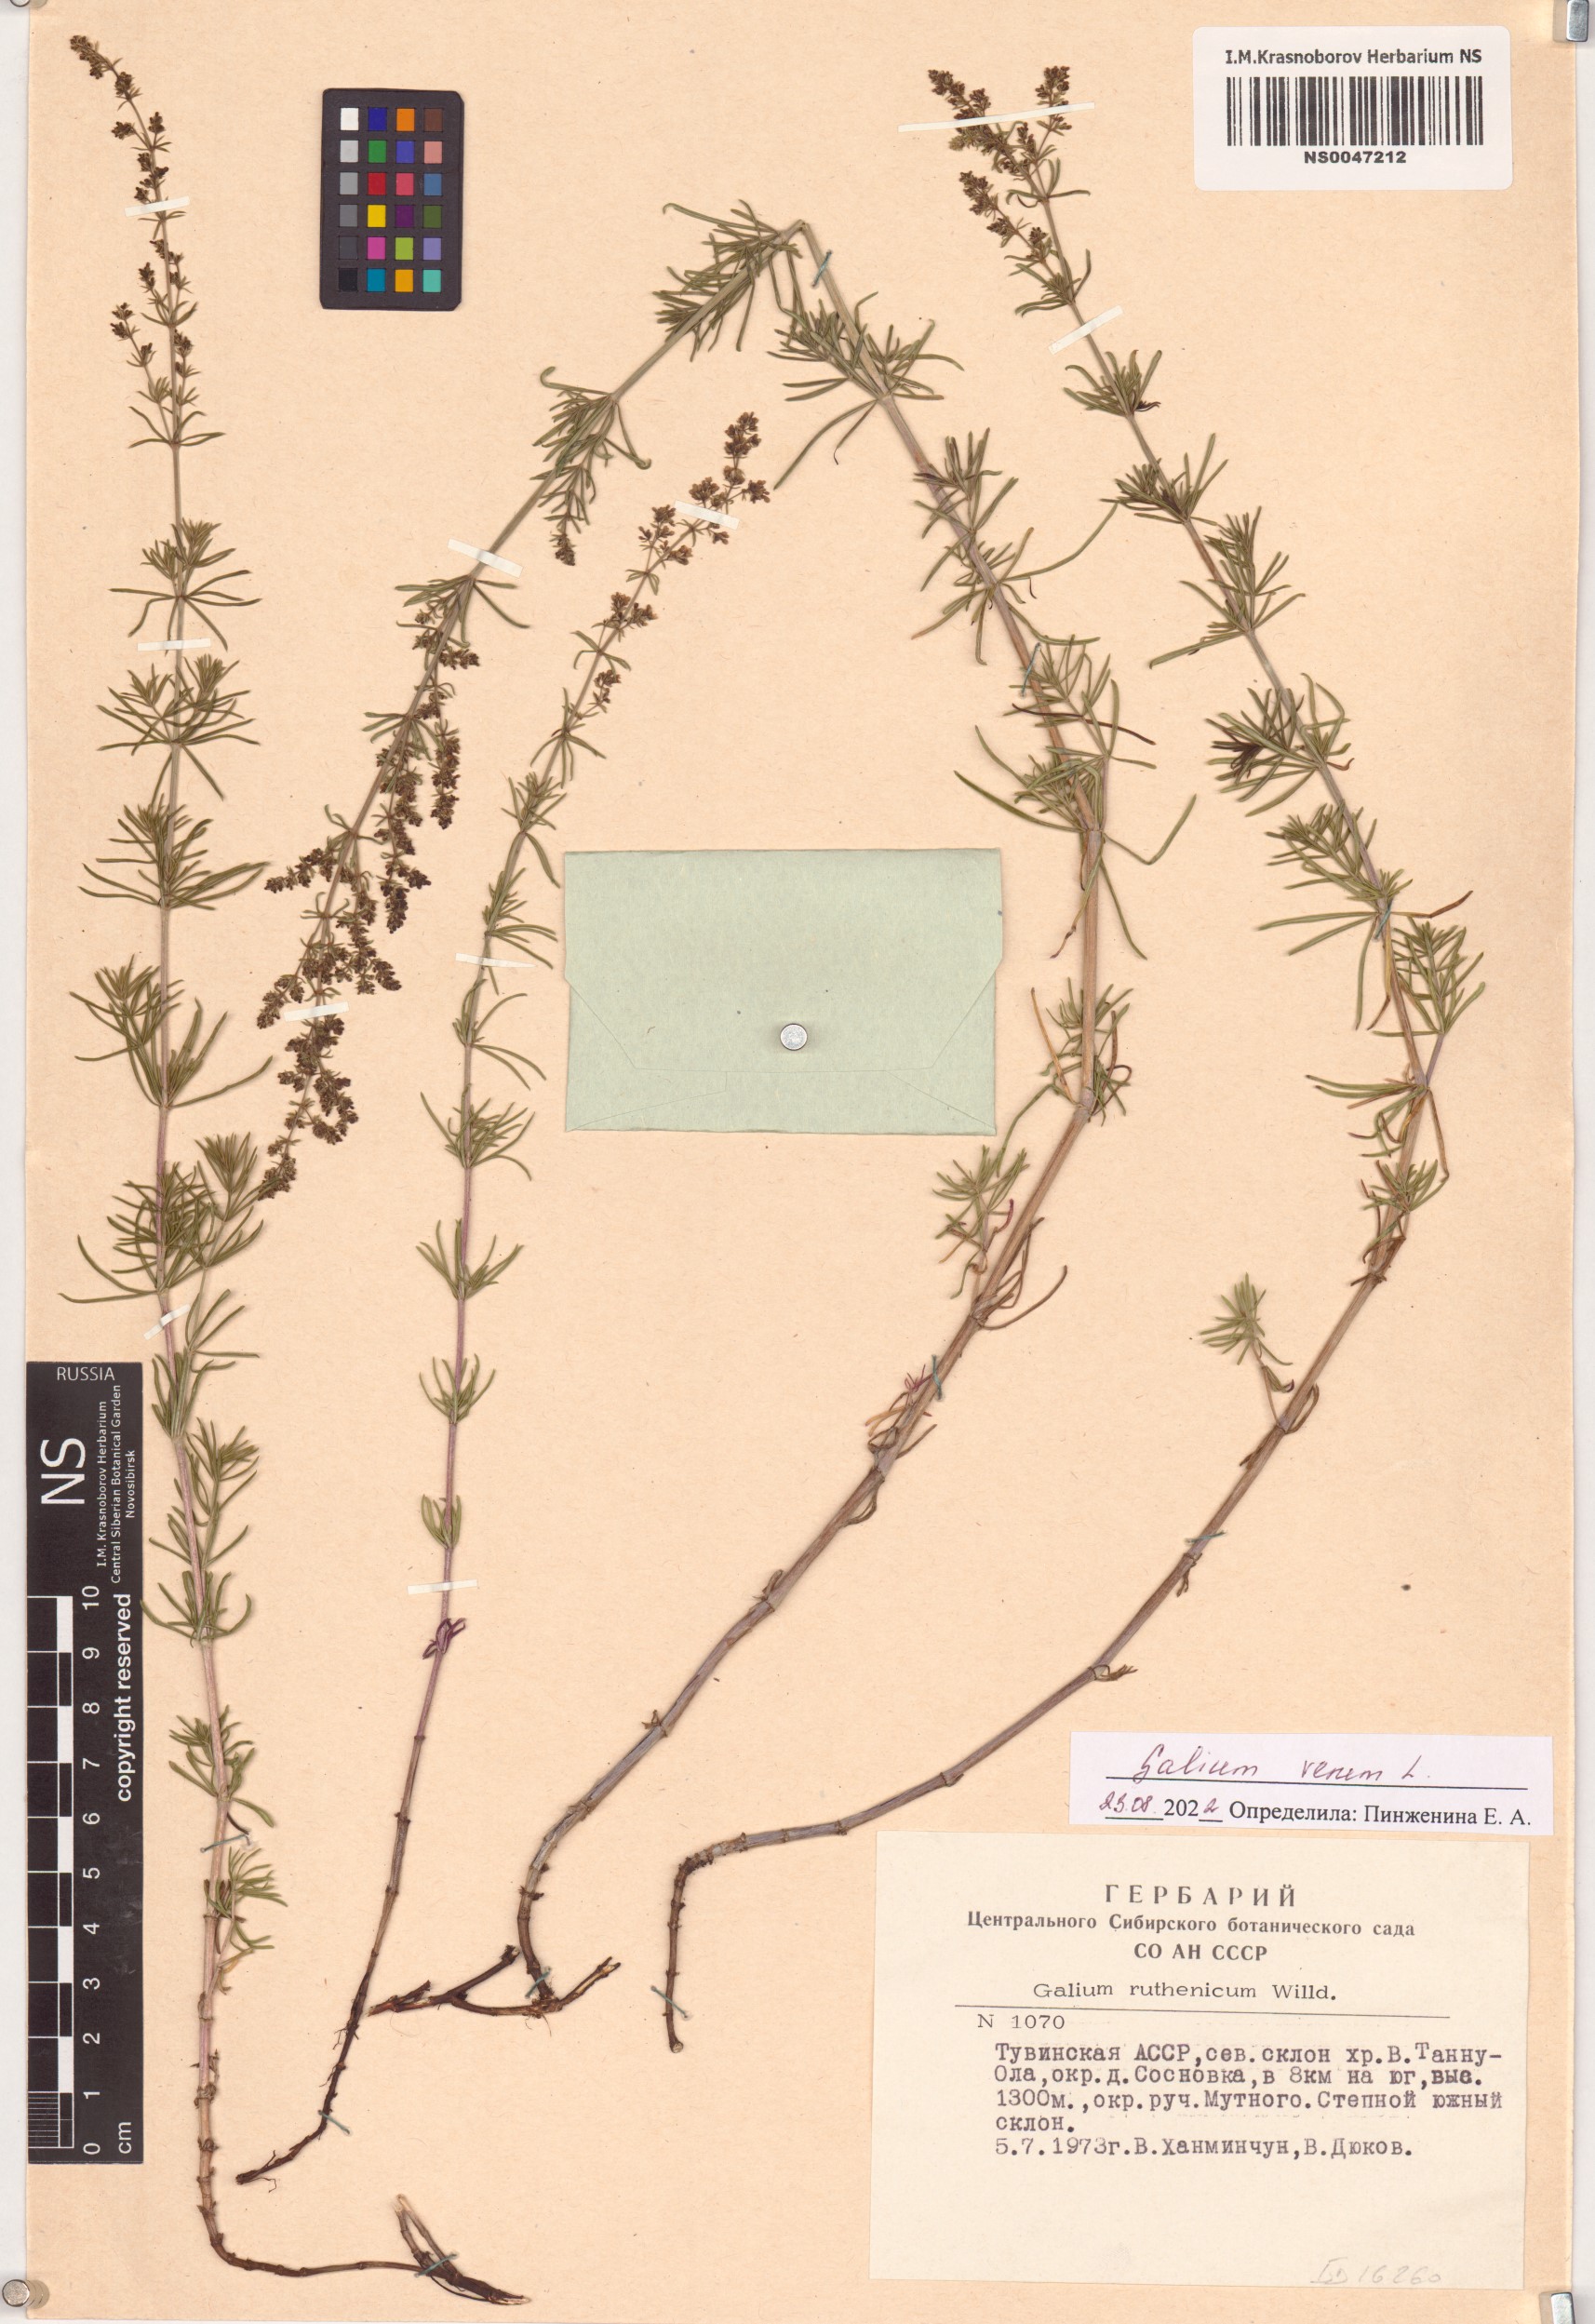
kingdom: Plantae
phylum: Tracheophyta
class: Magnoliopsida
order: Gentianales
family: Rubiaceae
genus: Galium
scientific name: Galium verum
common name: Lady's bedstraw
